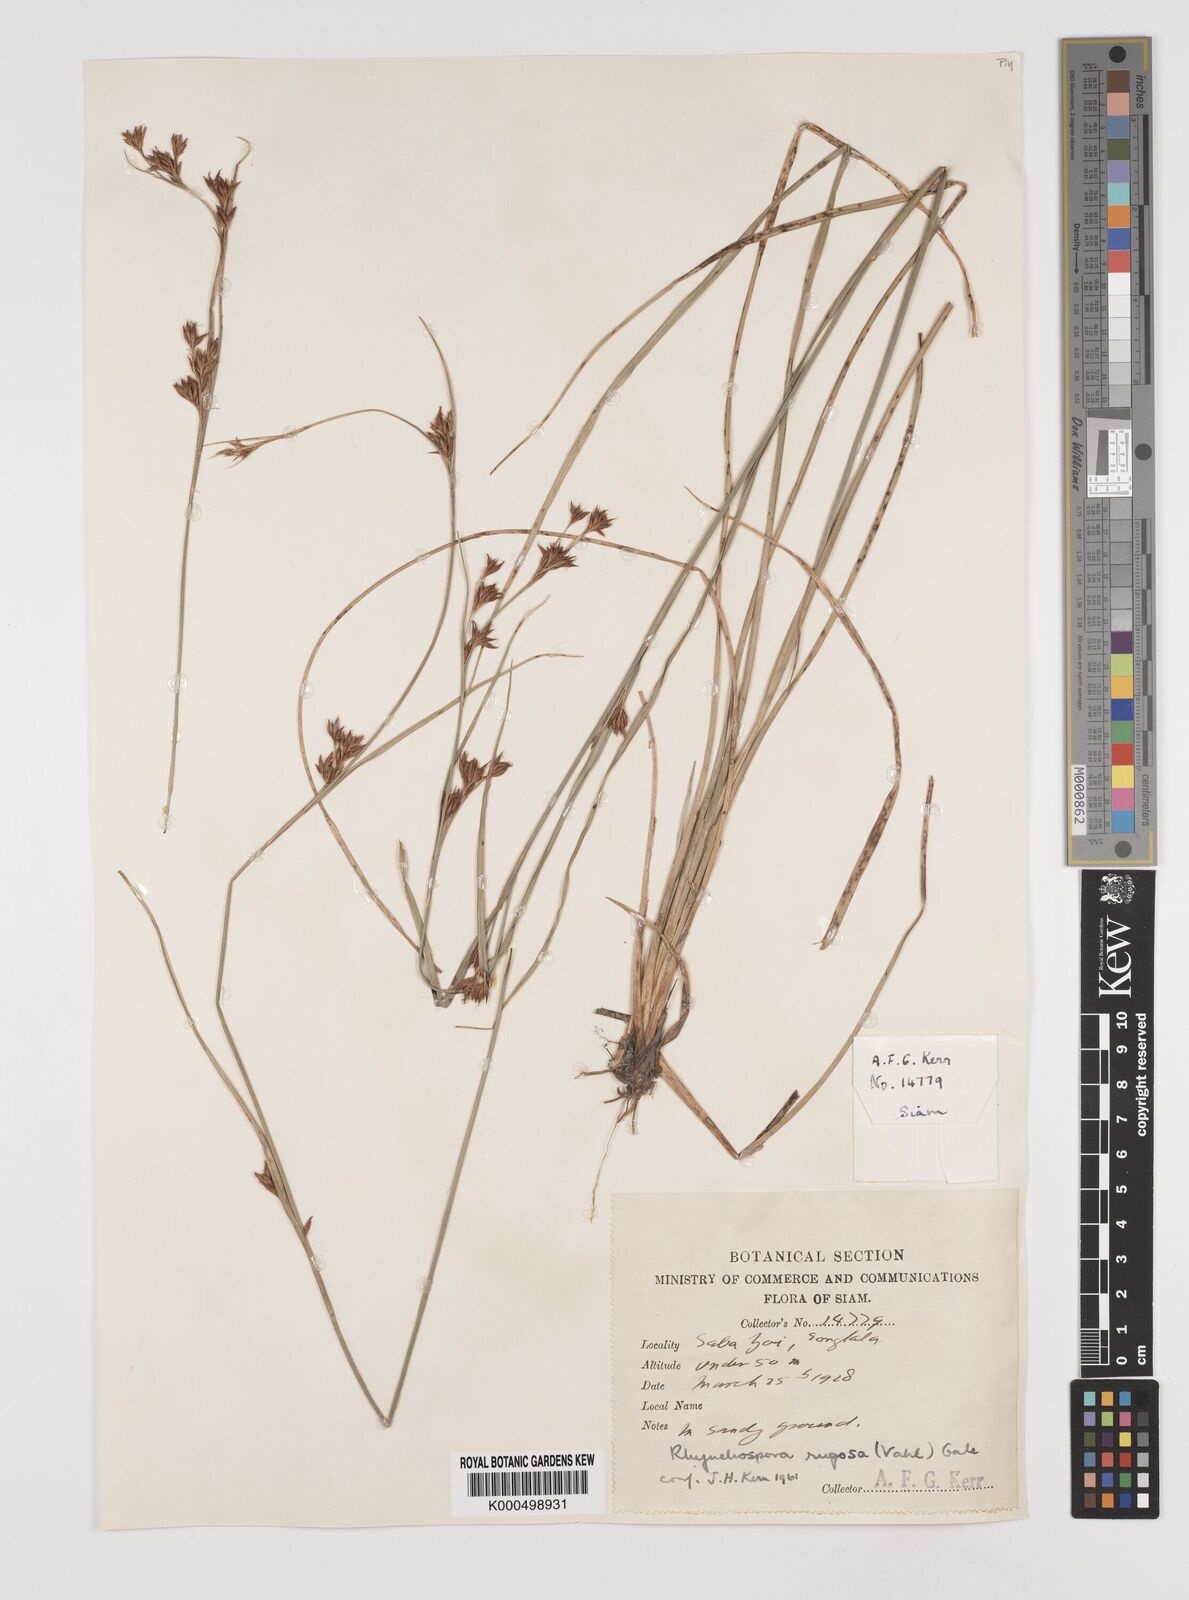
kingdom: Plantae
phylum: Tracheophyta
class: Liliopsida
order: Poales
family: Cyperaceae
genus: Rhynchospora
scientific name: Rhynchospora chinensis
